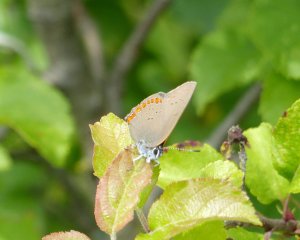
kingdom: Animalia
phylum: Arthropoda
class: Insecta
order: Lepidoptera
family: Lycaenidae
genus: Harkenclenus
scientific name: Harkenclenus titus
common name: Coral Hairstreak
